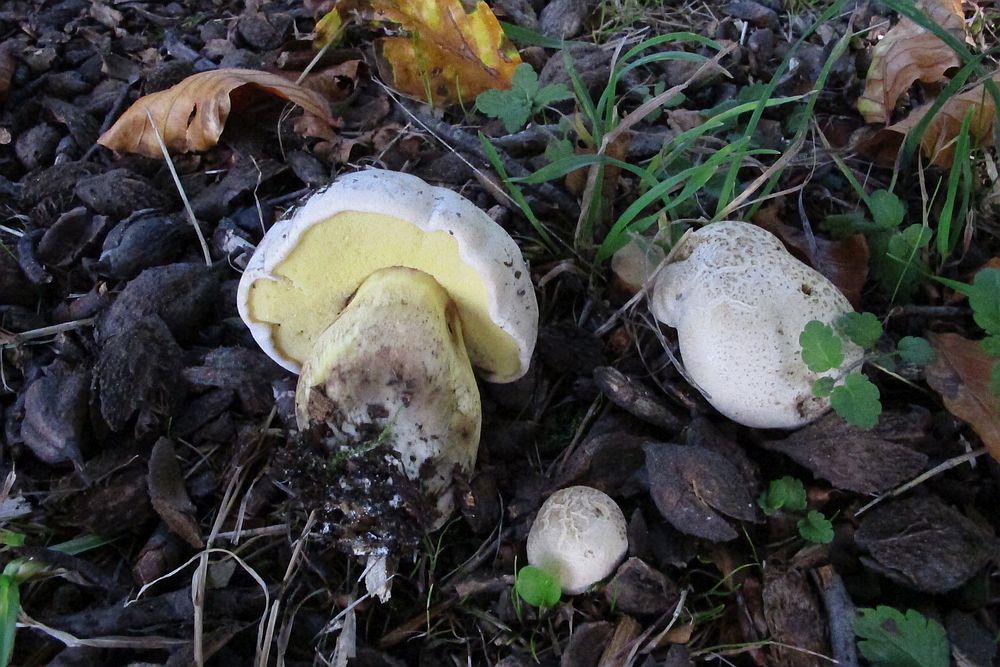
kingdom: Fungi
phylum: Basidiomycota
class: Agaricomycetes
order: Boletales
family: Boletaceae
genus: Caloboletus
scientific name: Caloboletus radicans
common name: rod-rørhat
